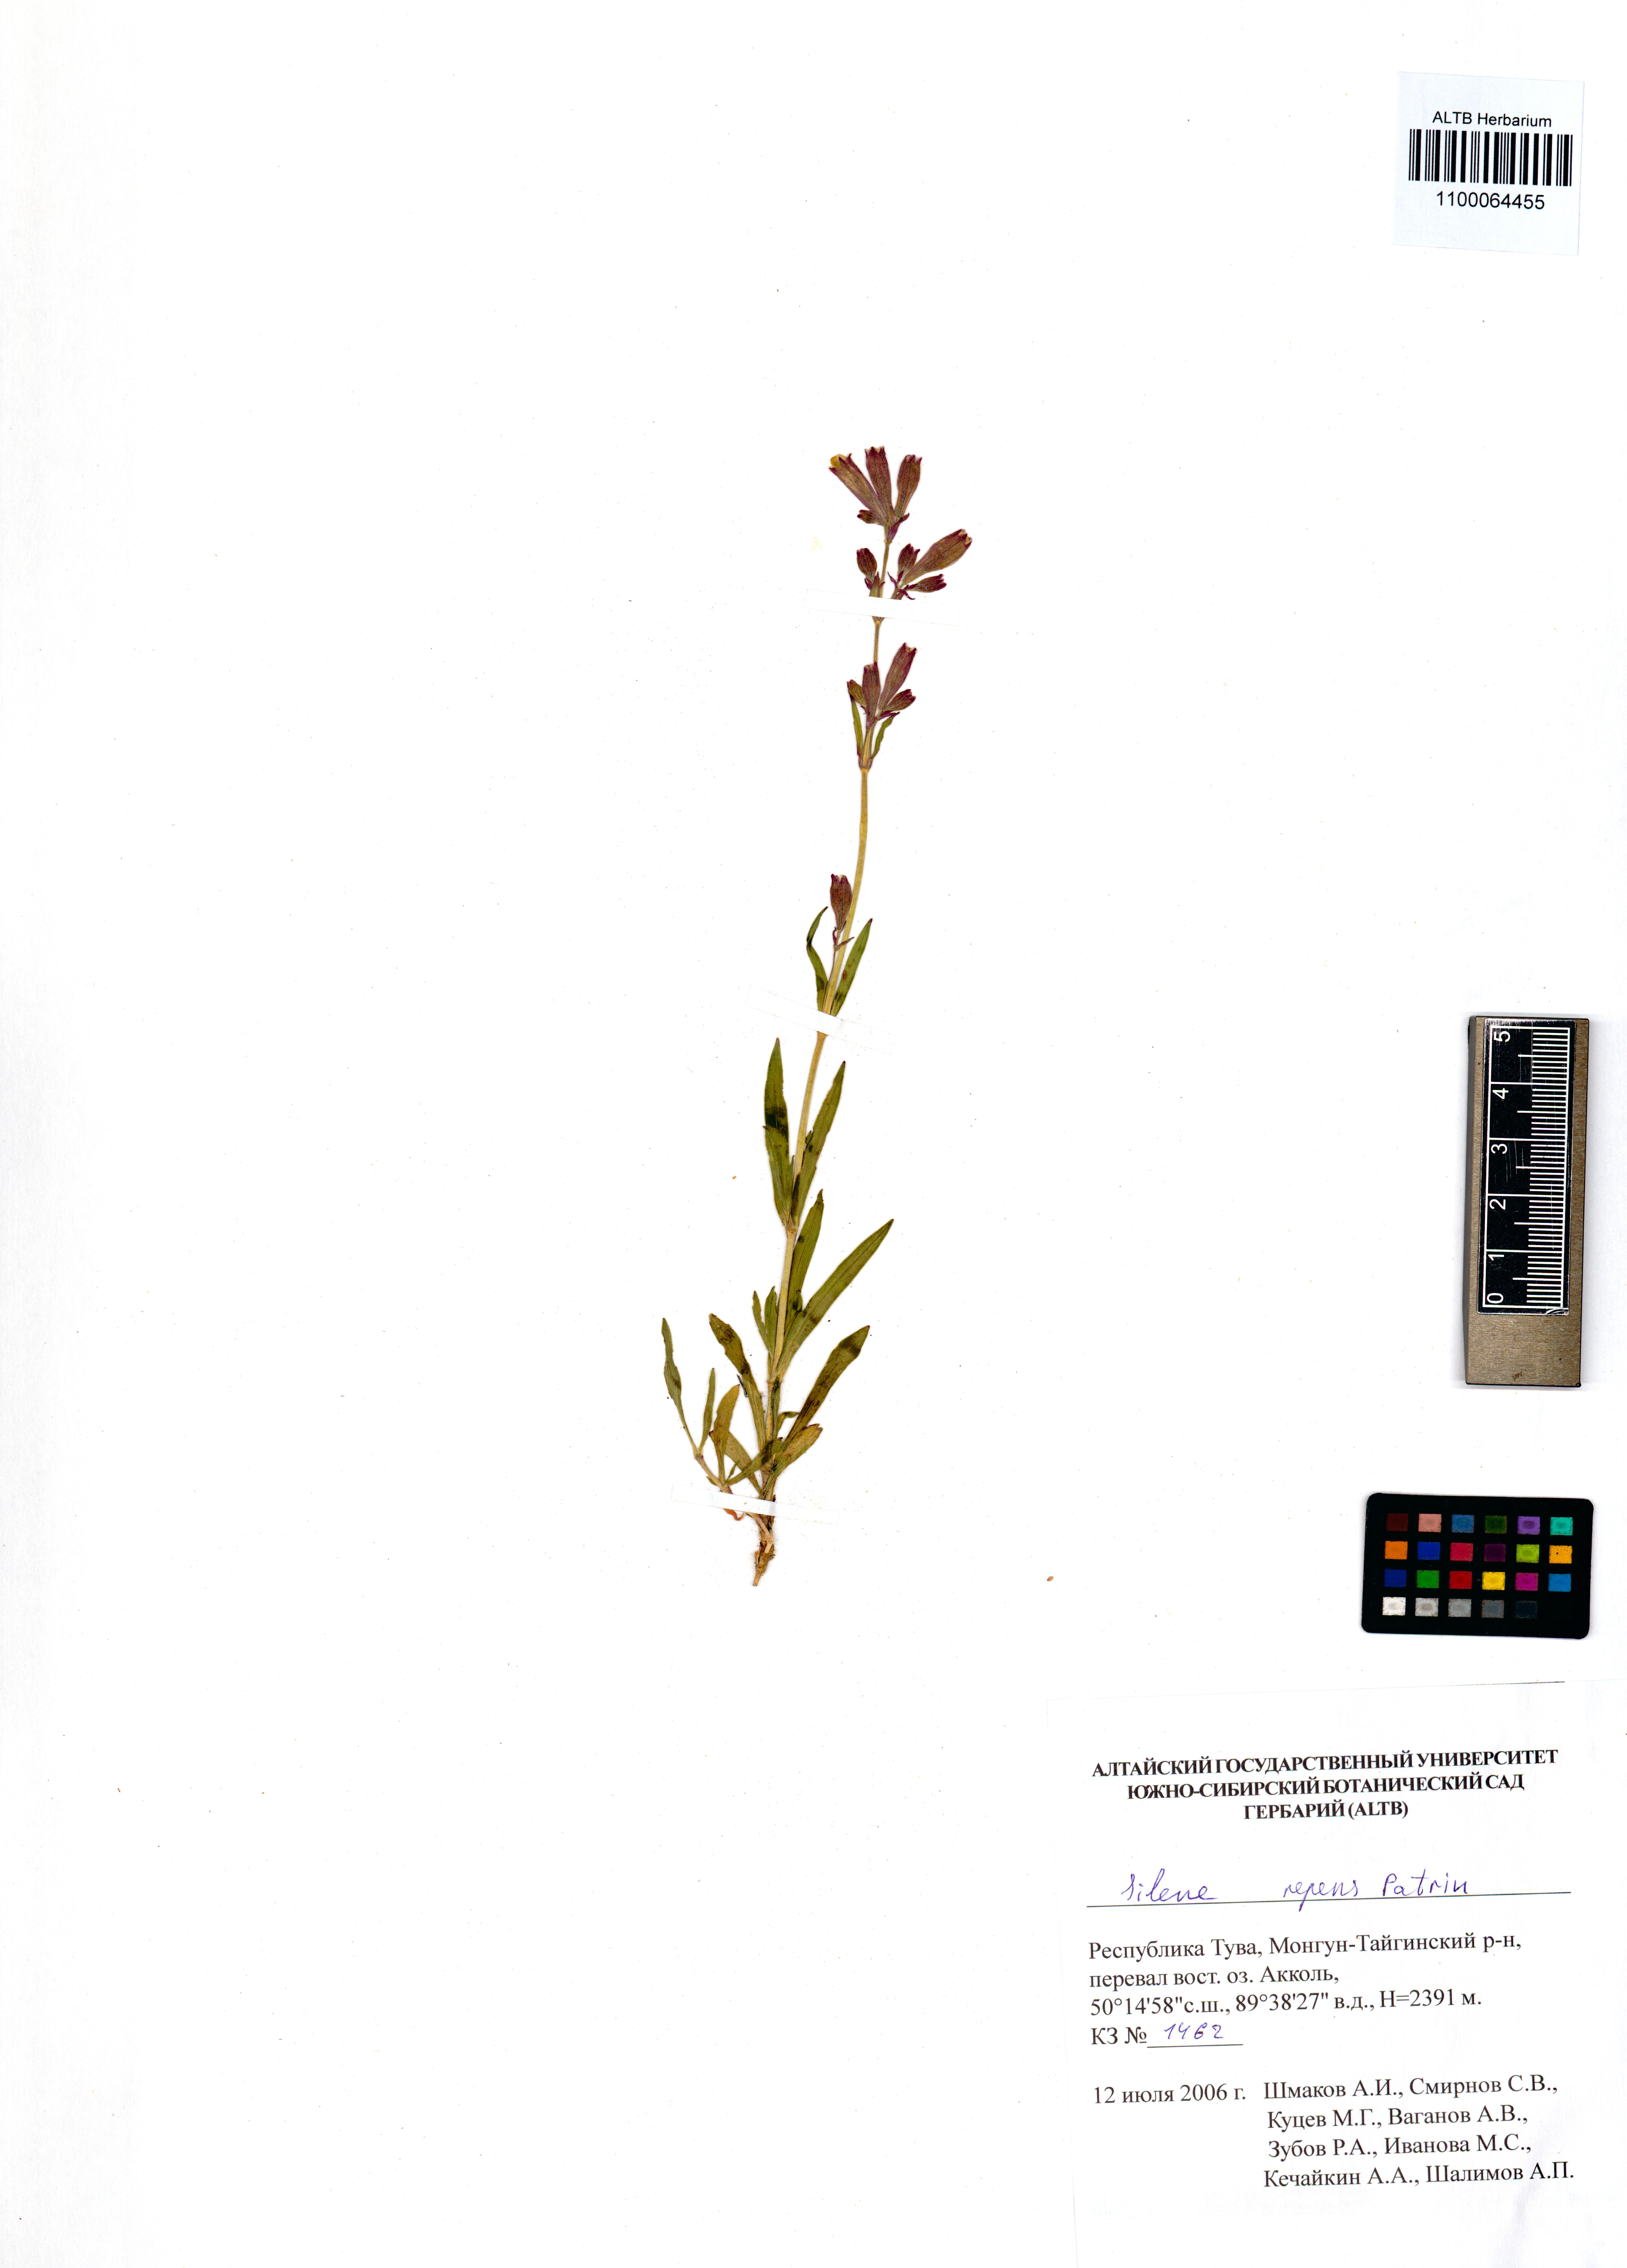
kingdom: Plantae
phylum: Tracheophyta
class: Magnoliopsida
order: Caryophyllales
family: Caryophyllaceae
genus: Silene
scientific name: Silene repens
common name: Pink campion
